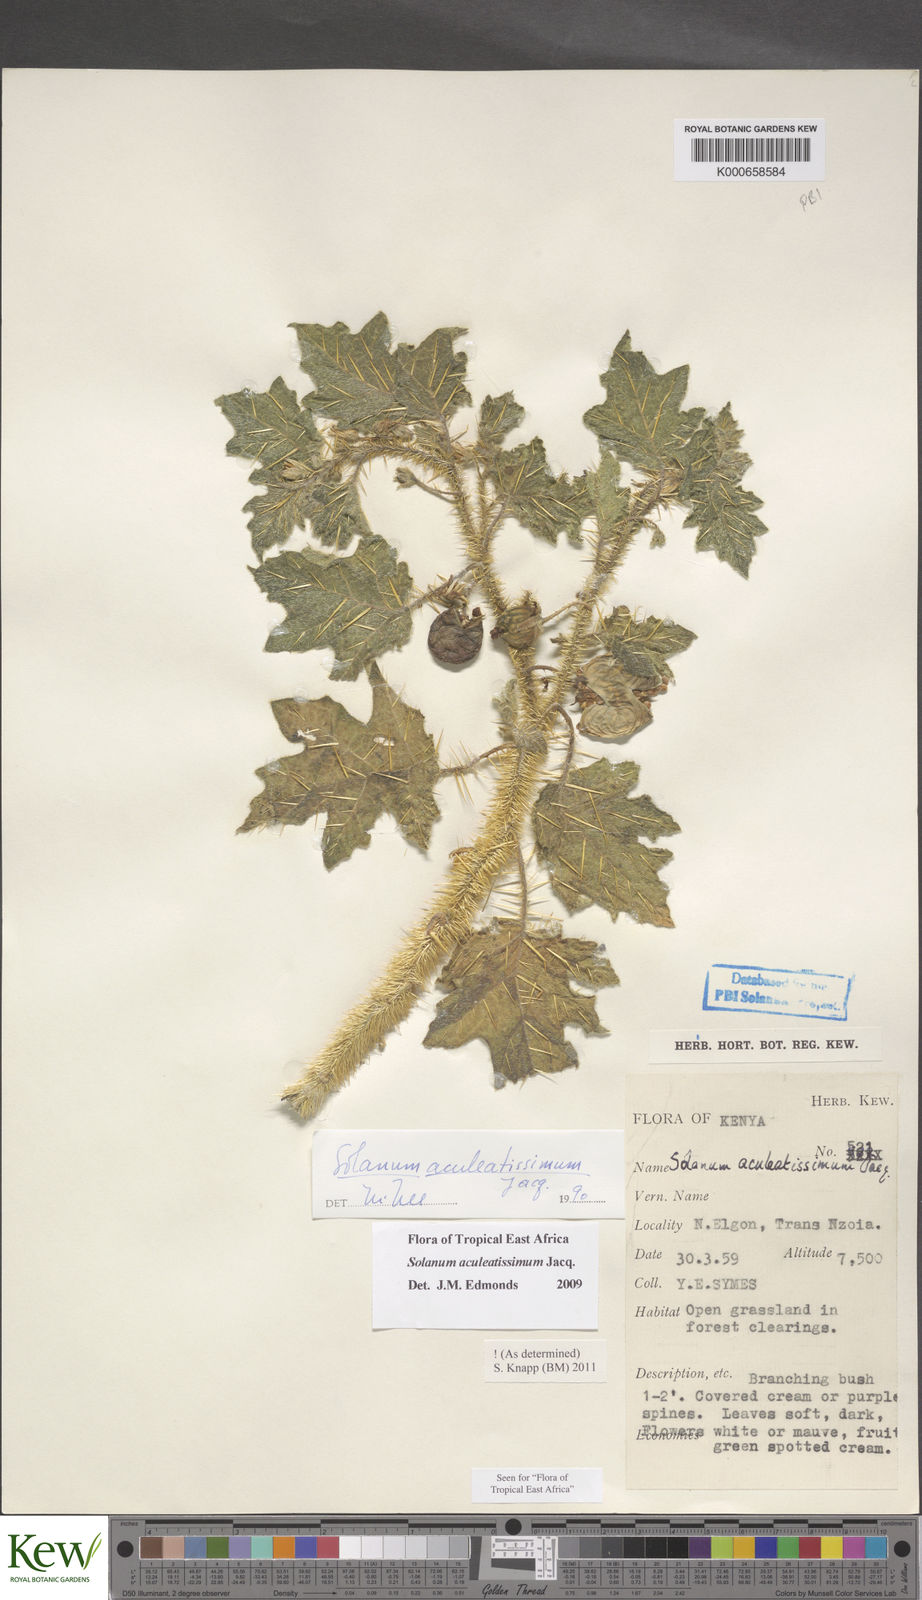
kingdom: Plantae
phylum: Tracheophyta
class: Magnoliopsida
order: Solanales
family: Solanaceae
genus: Solanum
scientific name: Solanum aculeatissimum
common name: Dutch eggplant
